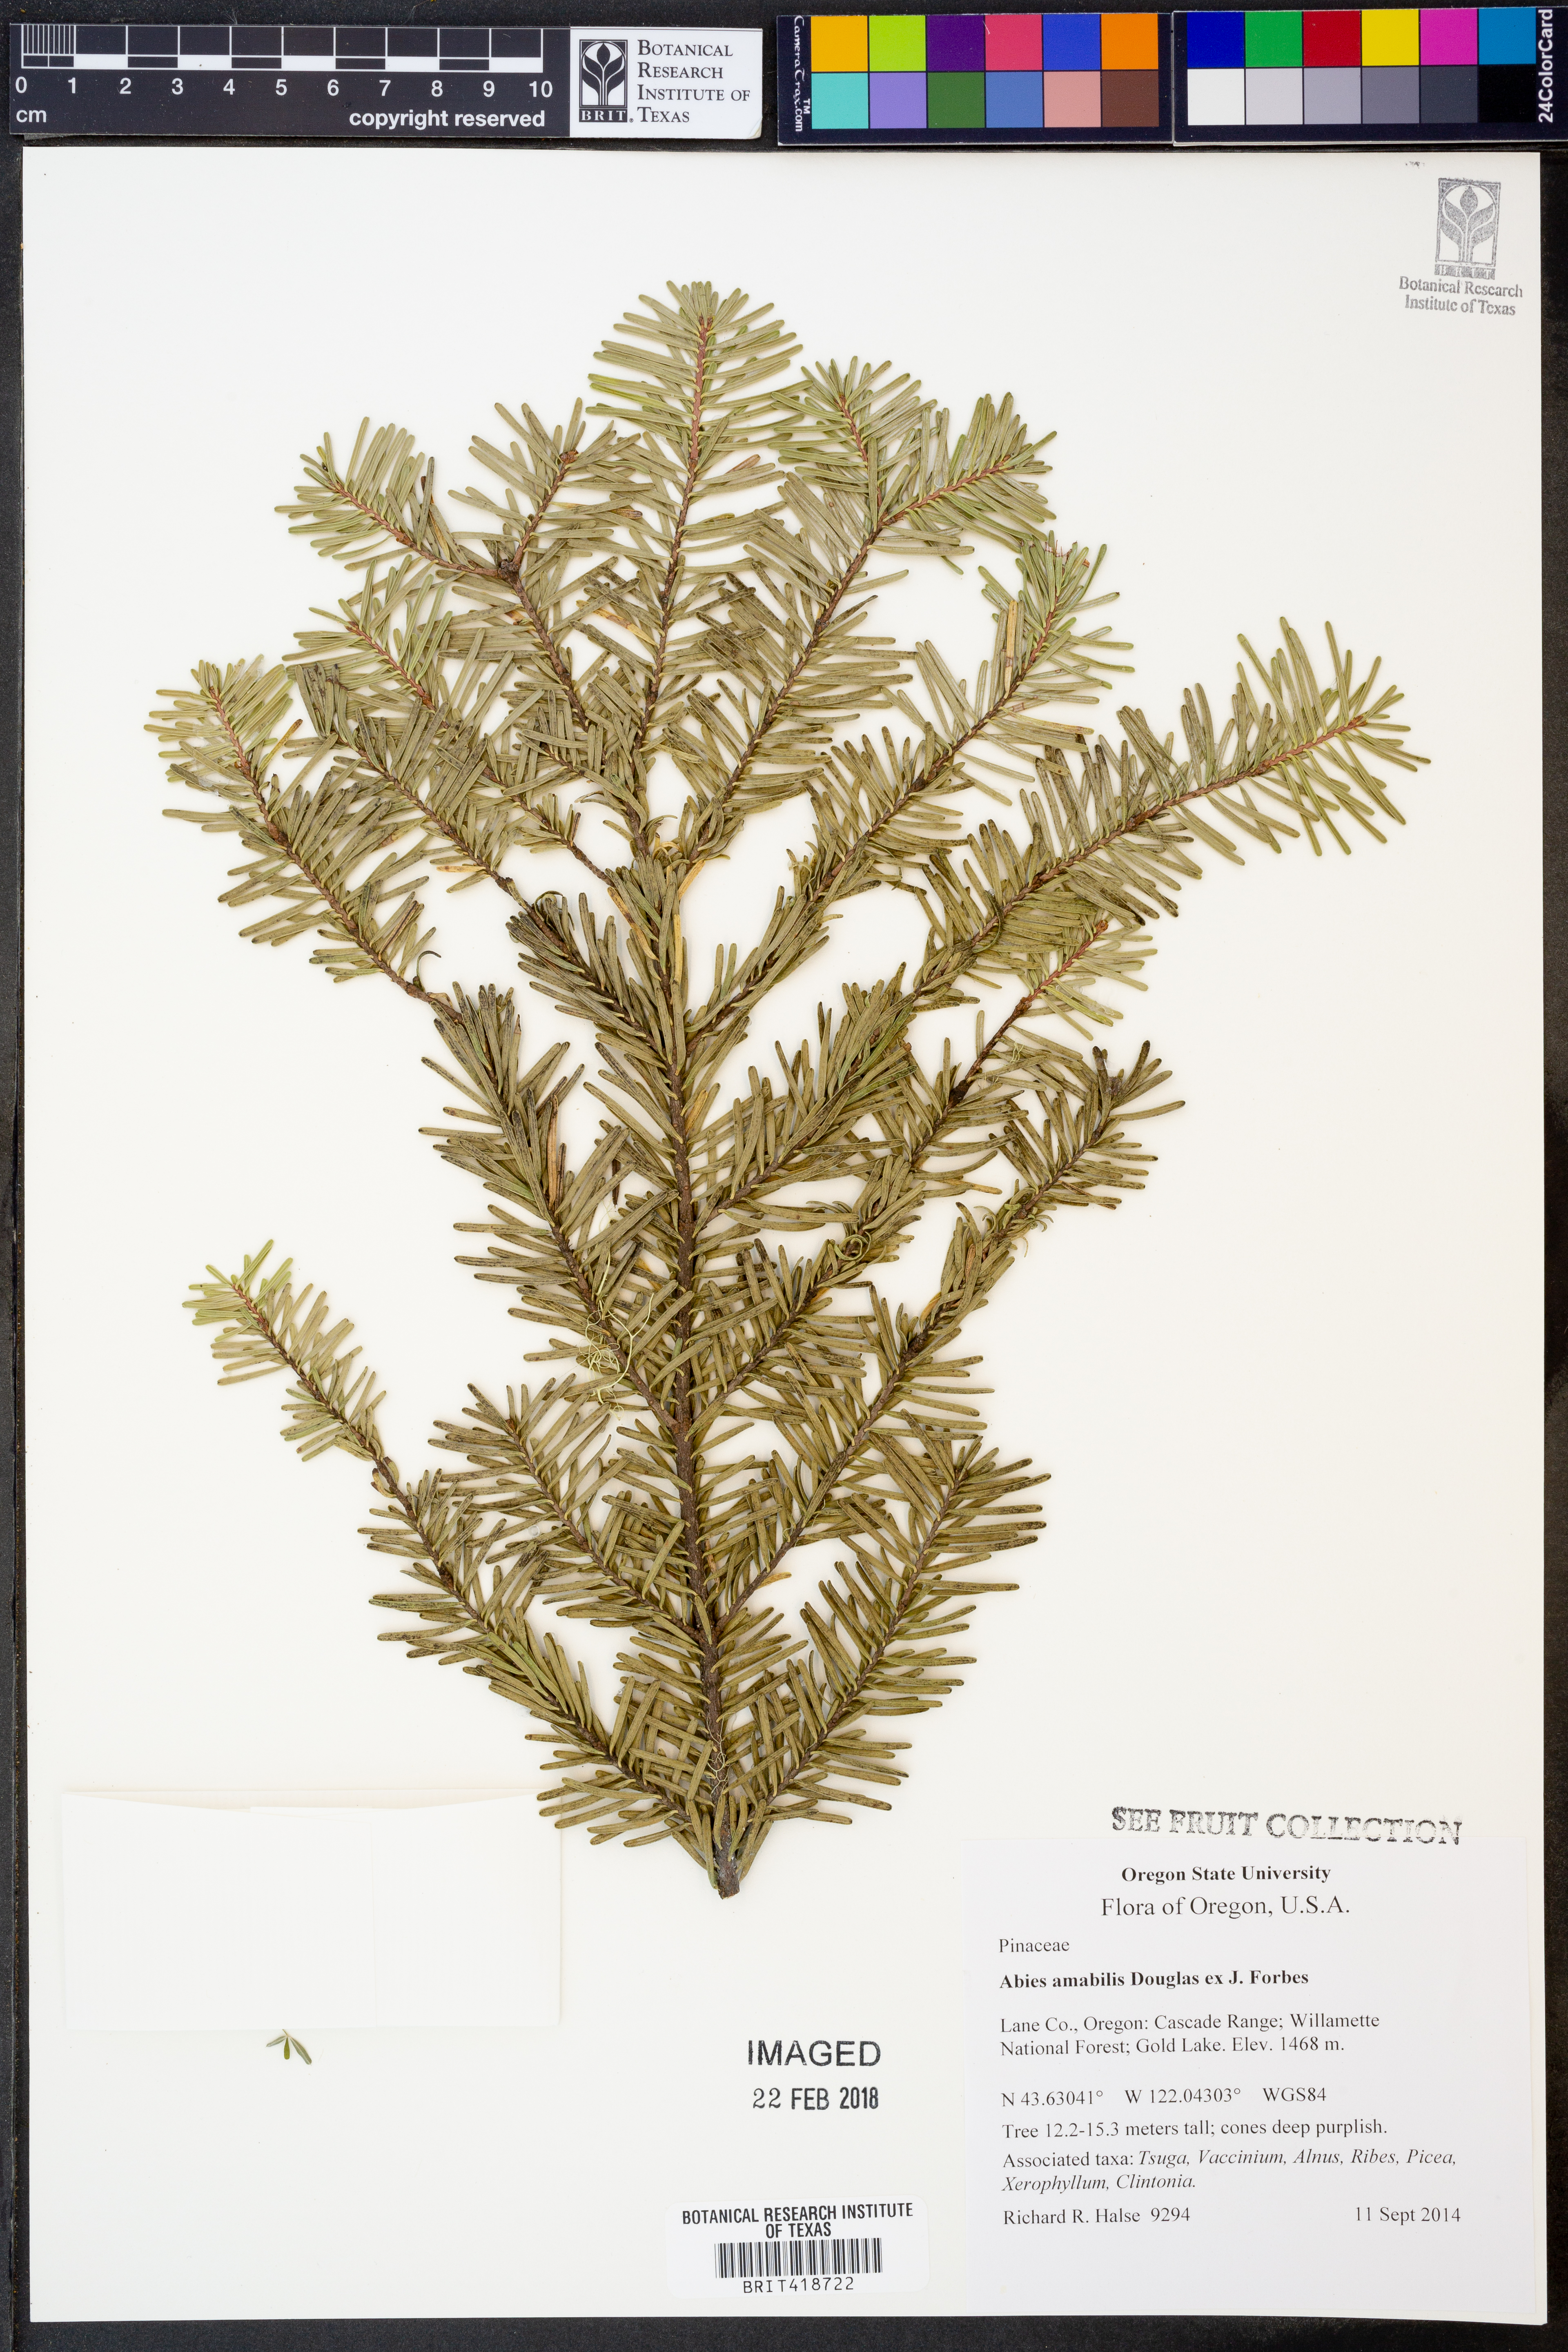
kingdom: Plantae
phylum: Tracheophyta
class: Pinopsida
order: Pinales
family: Pinaceae
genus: Abies
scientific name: Abies amabilis
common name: Pacific silver fir
